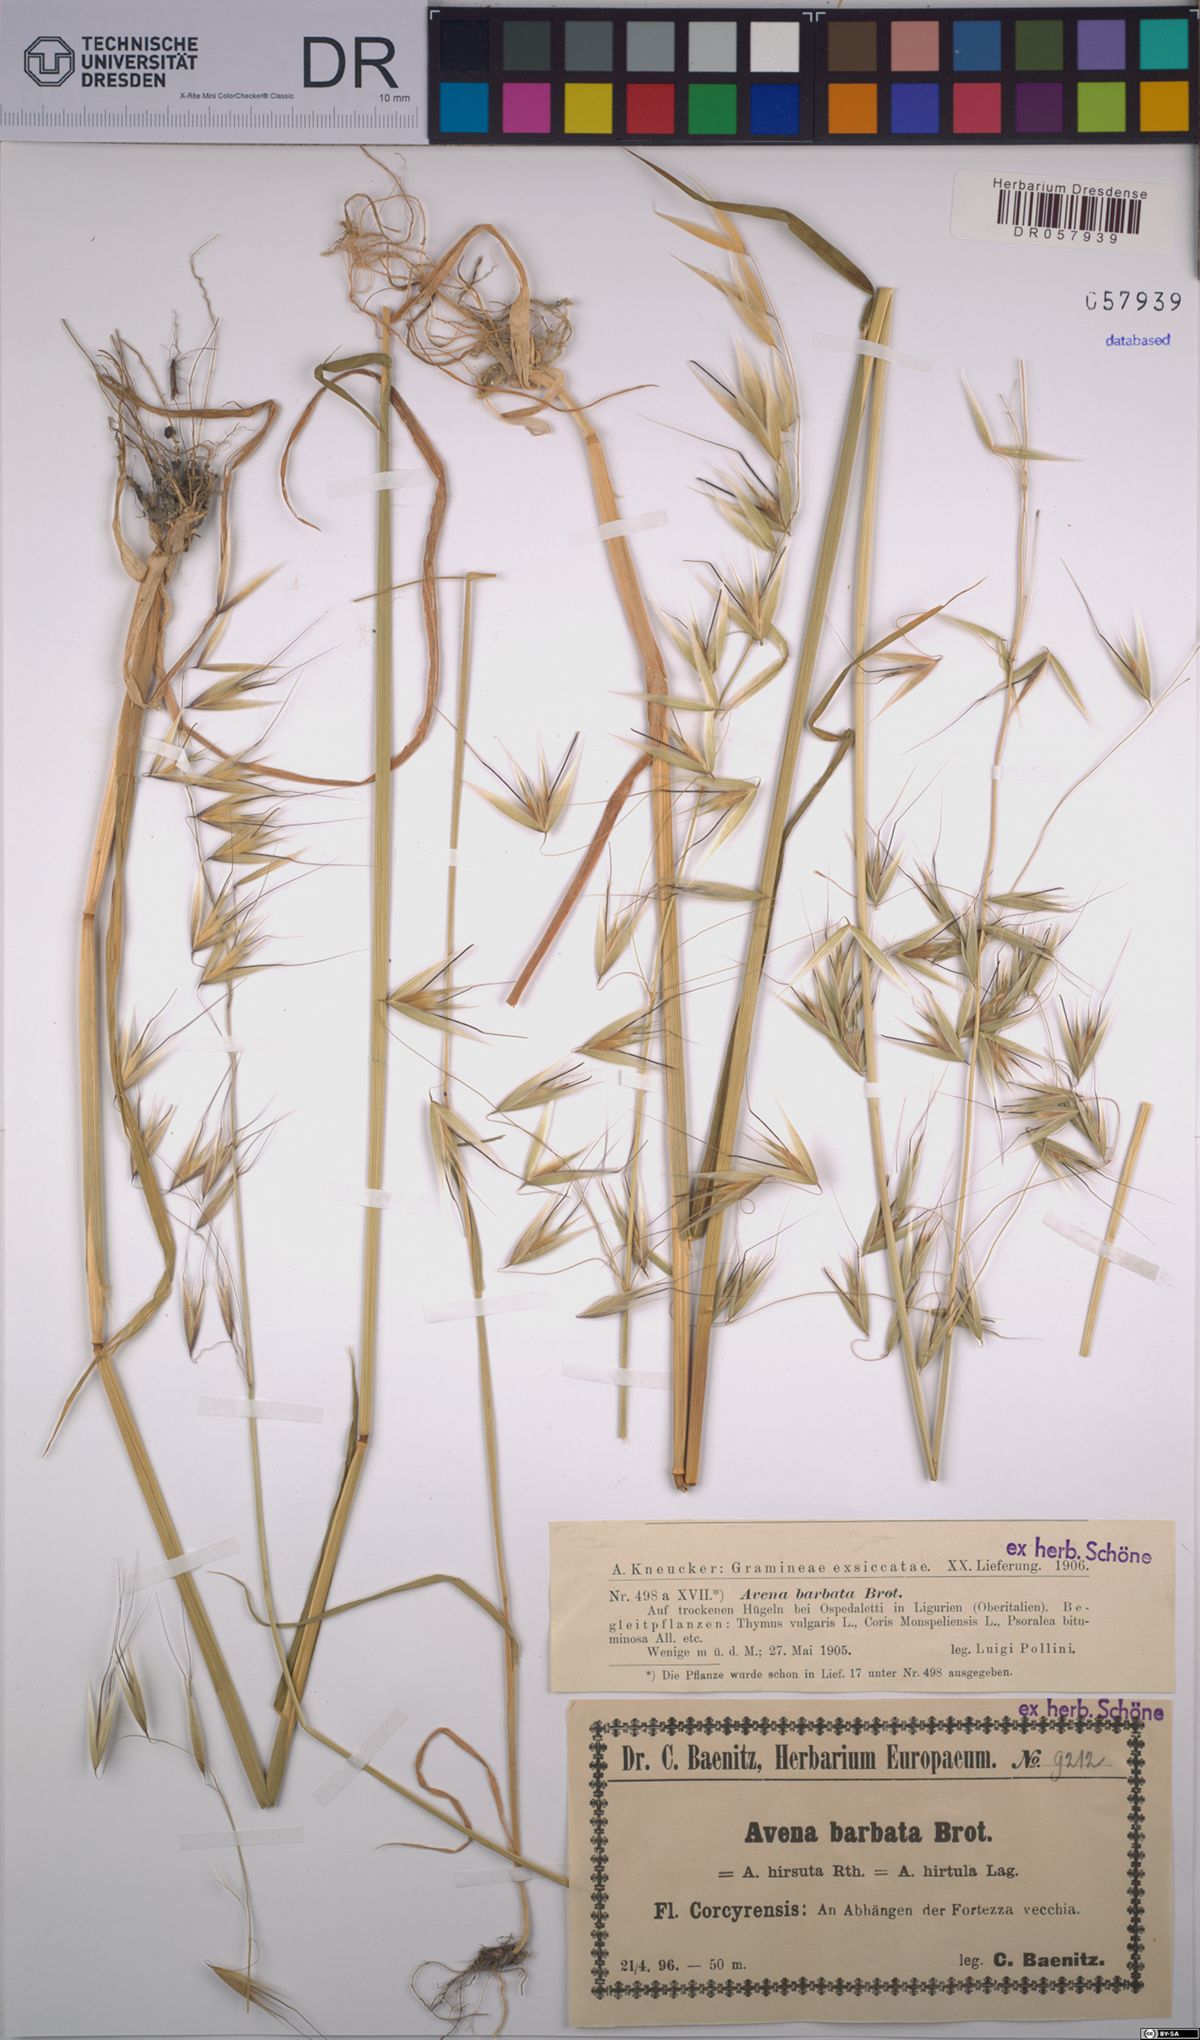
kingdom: Plantae
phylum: Tracheophyta
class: Liliopsida
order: Poales
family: Poaceae
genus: Avena
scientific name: Avena barbata
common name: Slender oat
